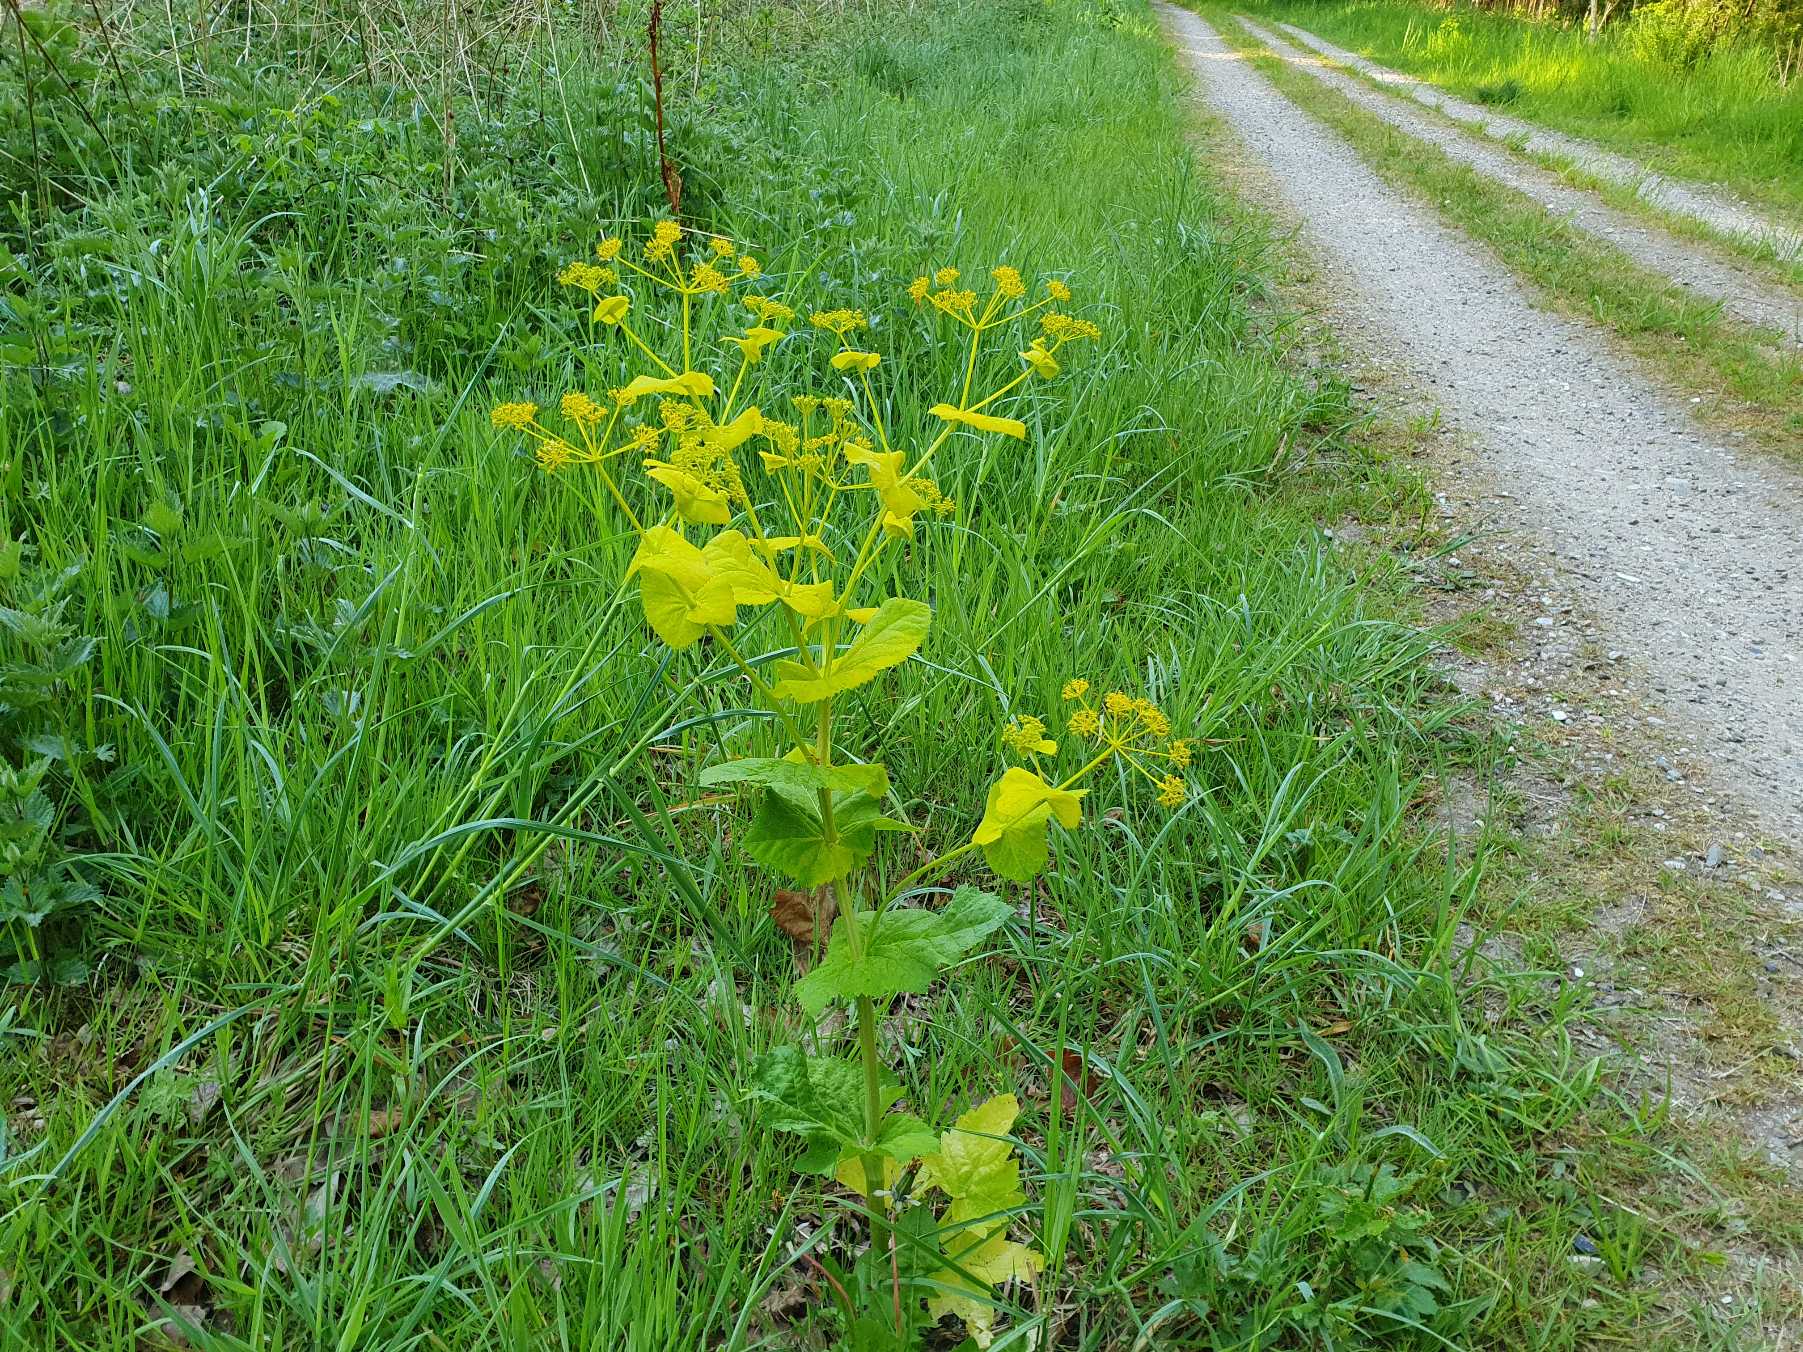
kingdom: Plantae
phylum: Tracheophyta
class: Magnoliopsida
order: Apiales
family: Apiaceae
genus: Smyrnium
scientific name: Smyrnium perfoliatum
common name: Lundgylden
